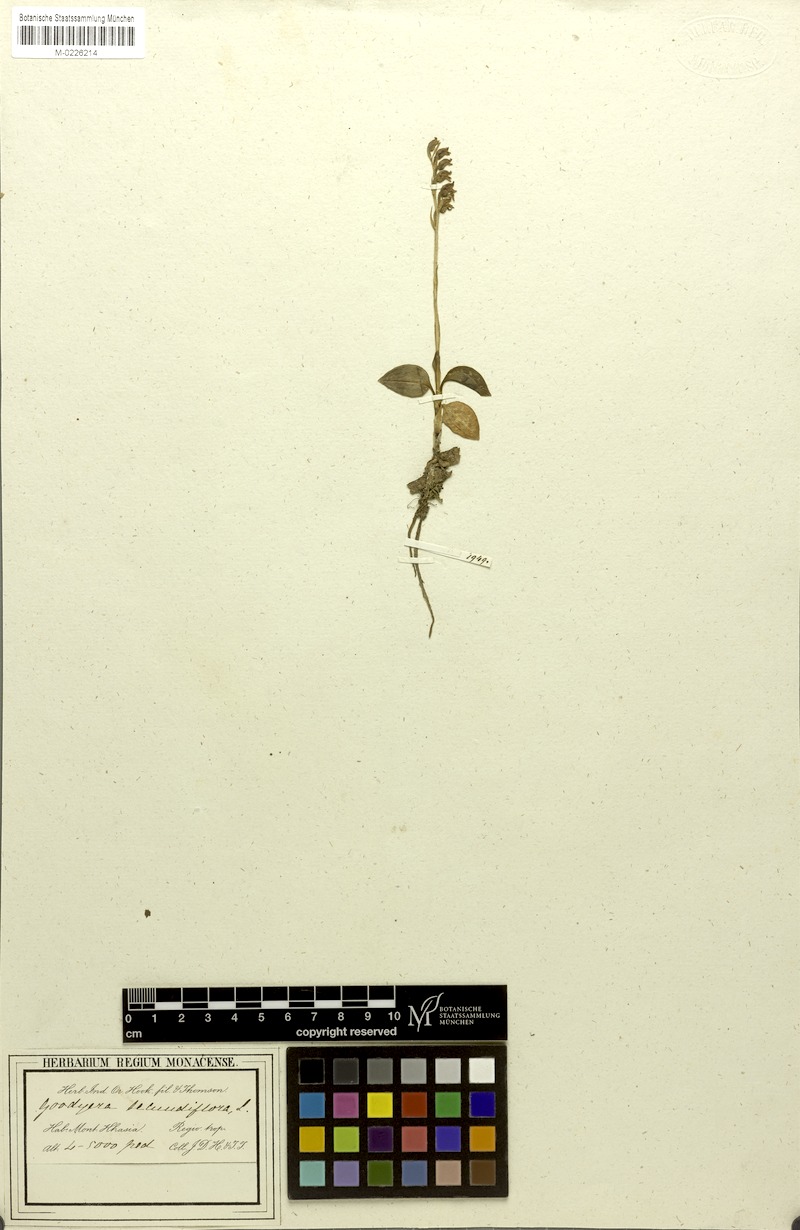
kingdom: Plantae
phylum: Tracheophyta
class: Liliopsida
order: Asparagales
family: Orchidaceae
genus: Goodyera
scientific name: Goodyera schlechtendaliana
